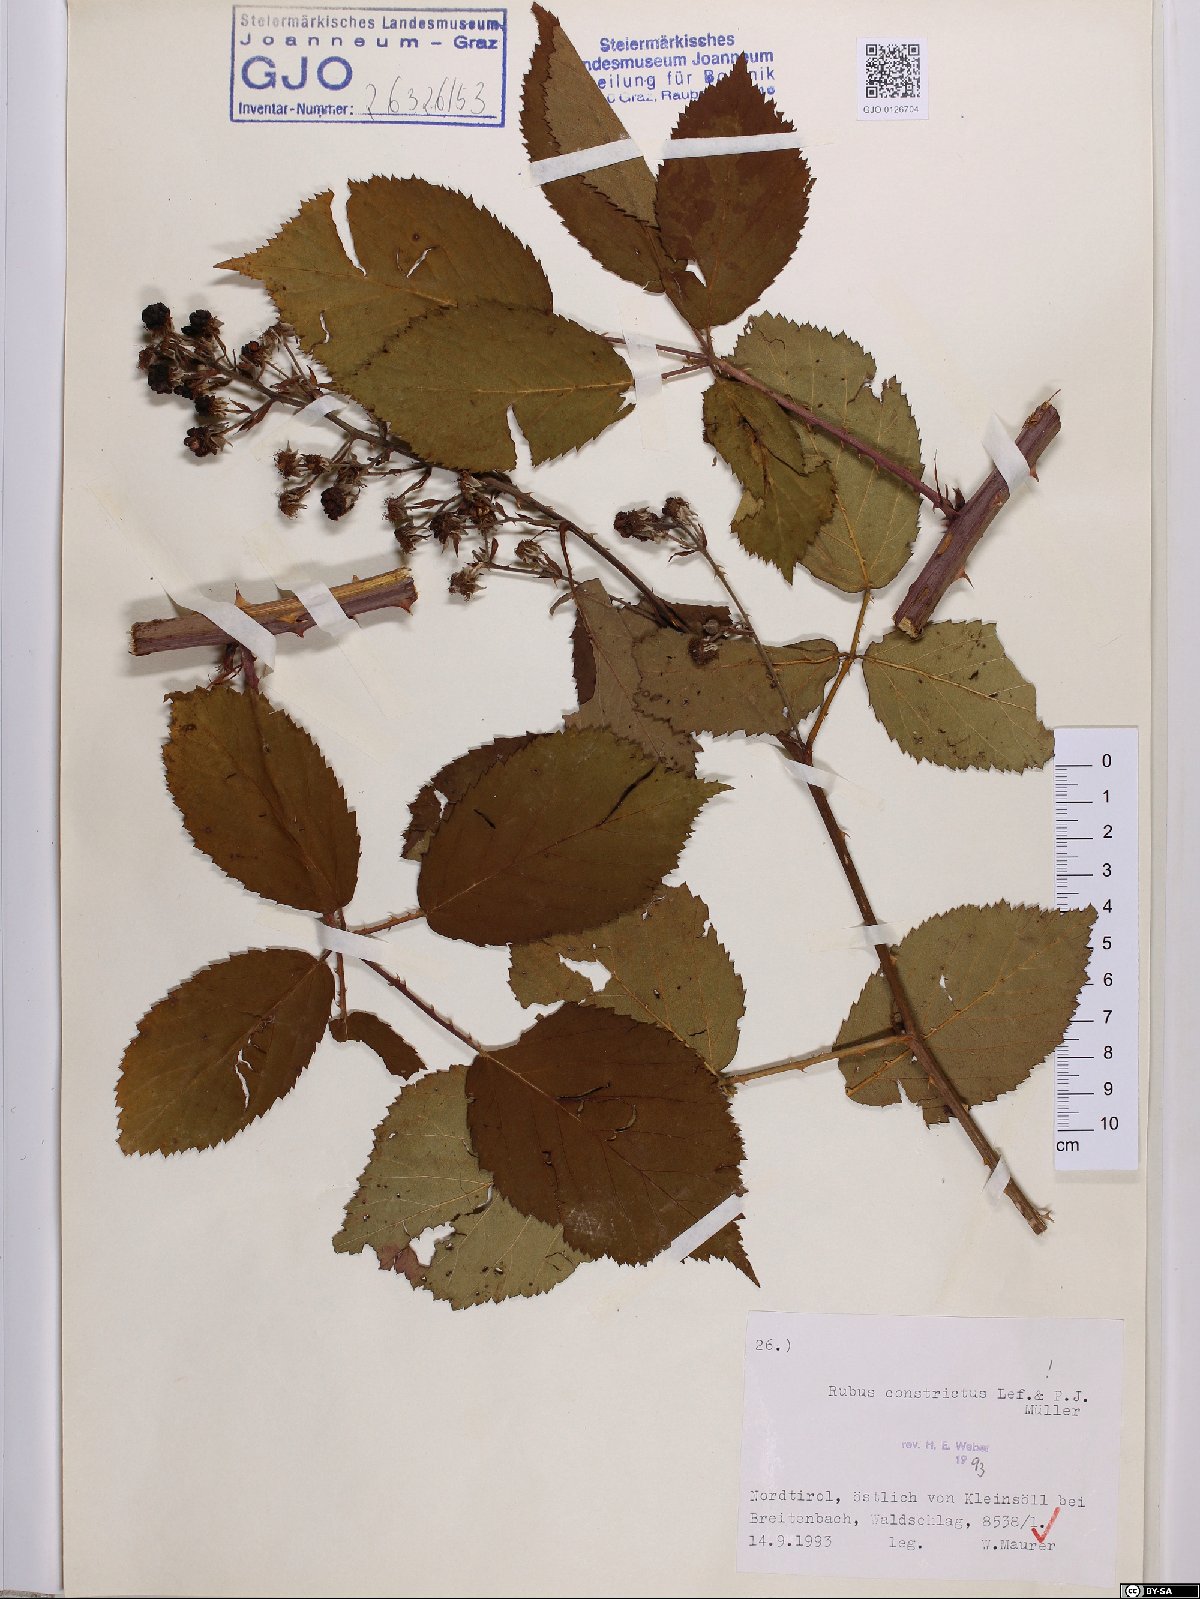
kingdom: Plantae
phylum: Tracheophyta
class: Magnoliopsida
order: Rosales
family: Rosaceae
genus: Rubus
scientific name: Rubus constrictus
